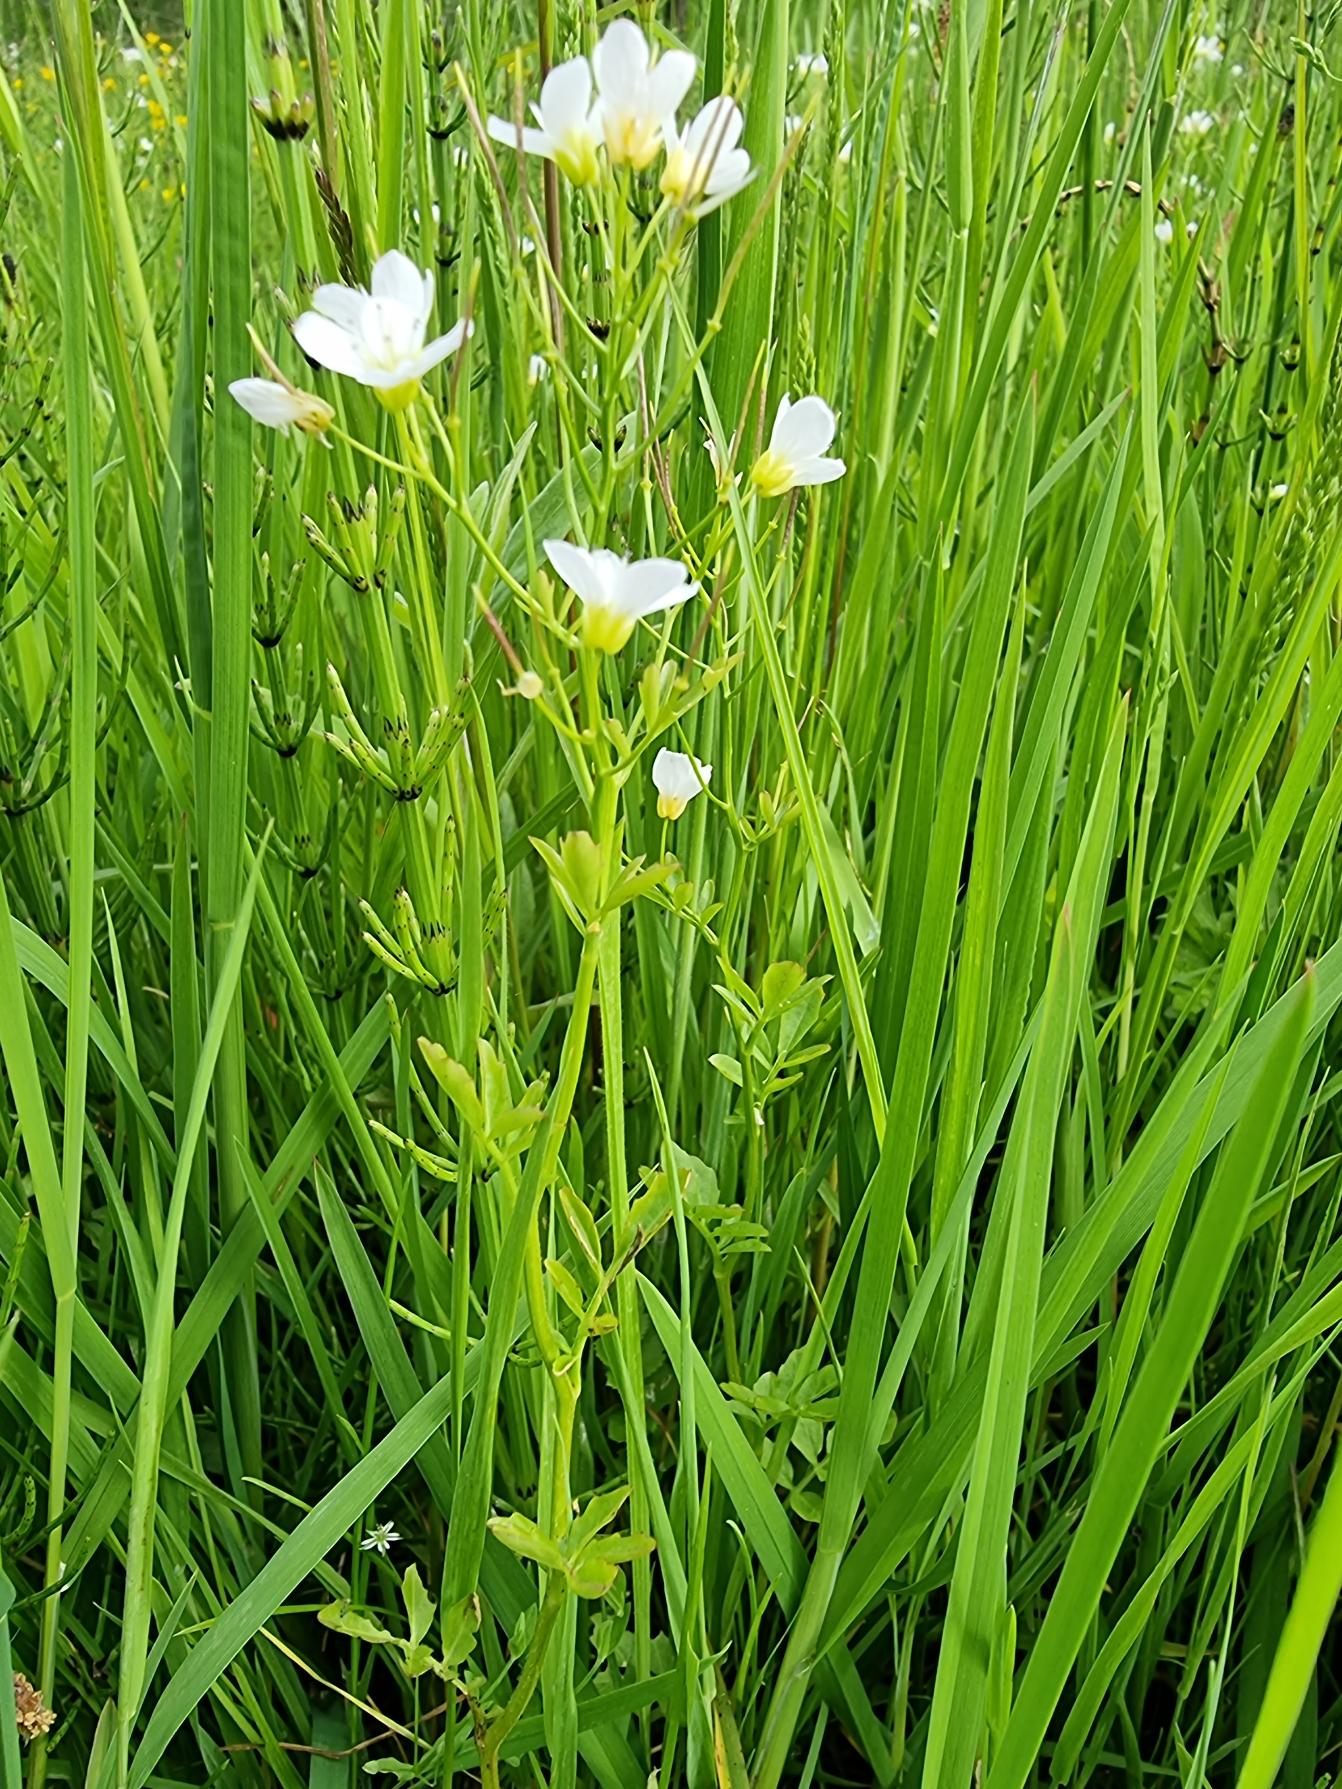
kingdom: Plantae
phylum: Tracheophyta
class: Magnoliopsida
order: Brassicales
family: Brassicaceae
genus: Cardamine
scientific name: Cardamine amara
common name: Vandkarse
